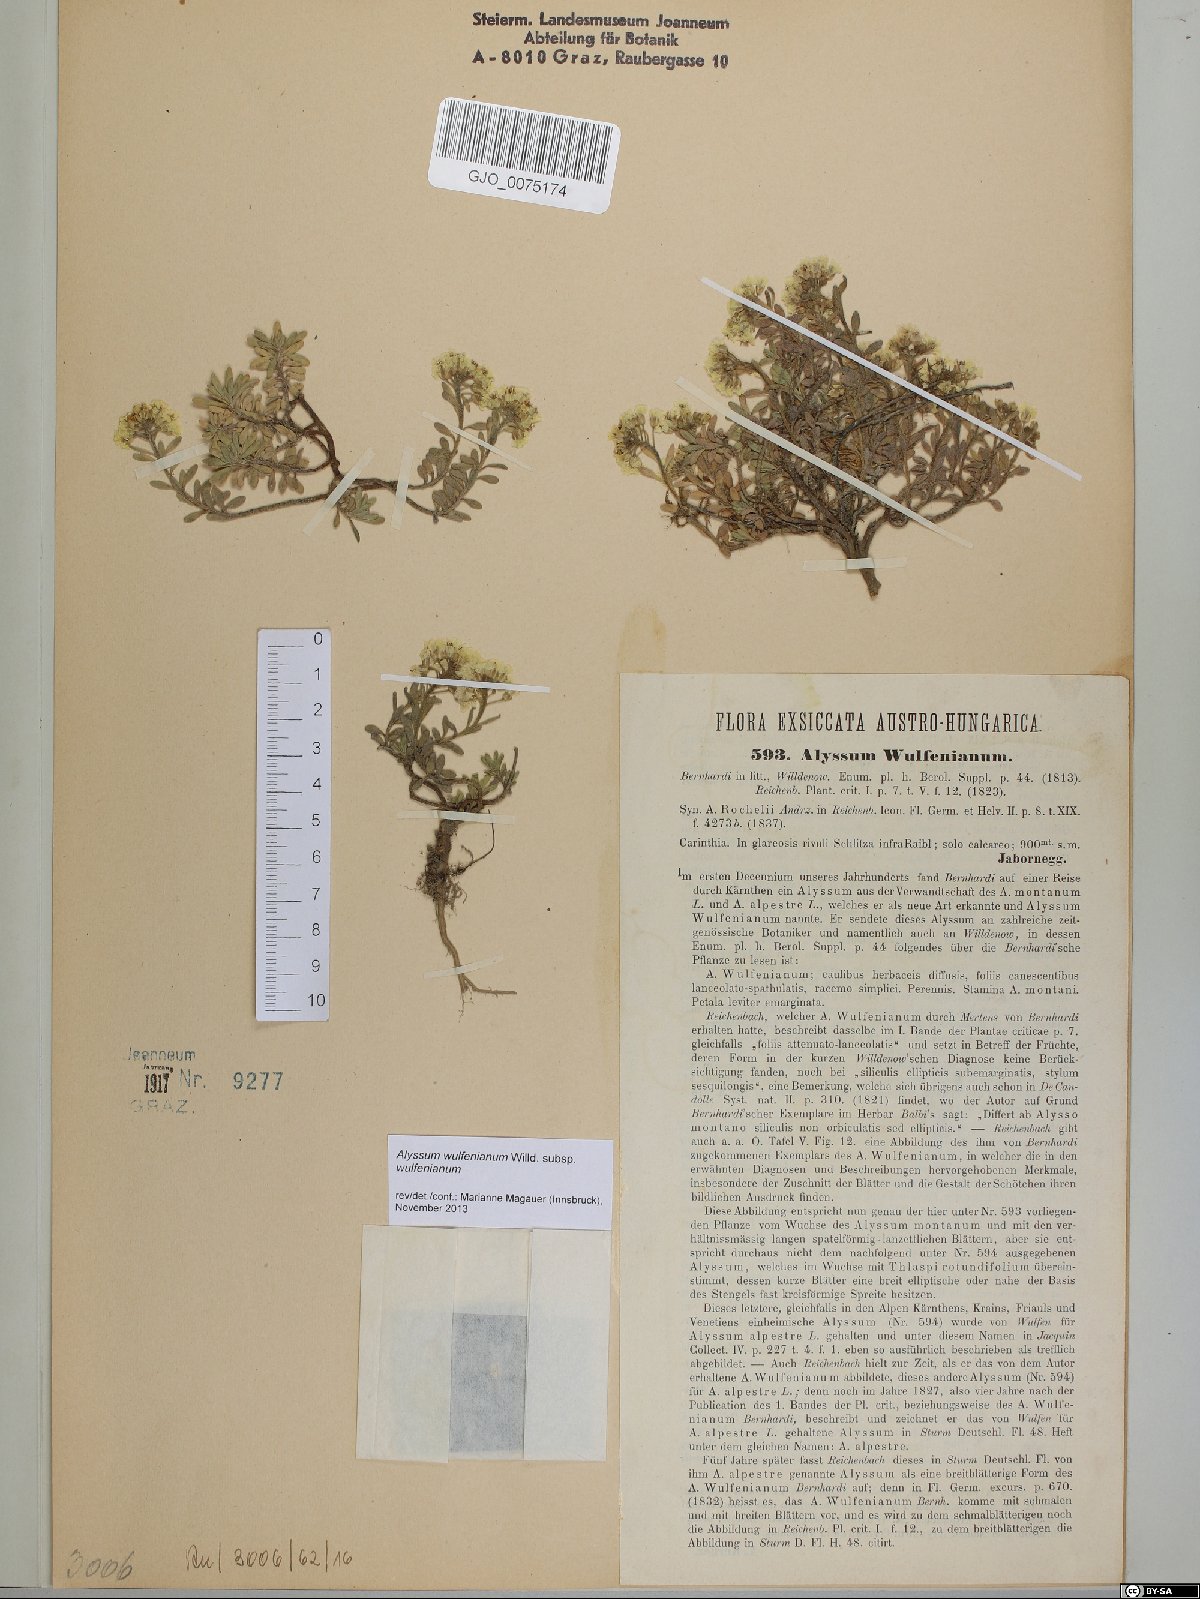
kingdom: Plantae
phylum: Tracheophyta
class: Magnoliopsida
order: Brassicales
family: Brassicaceae
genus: Alyssum
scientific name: Alyssum wulfenianum
